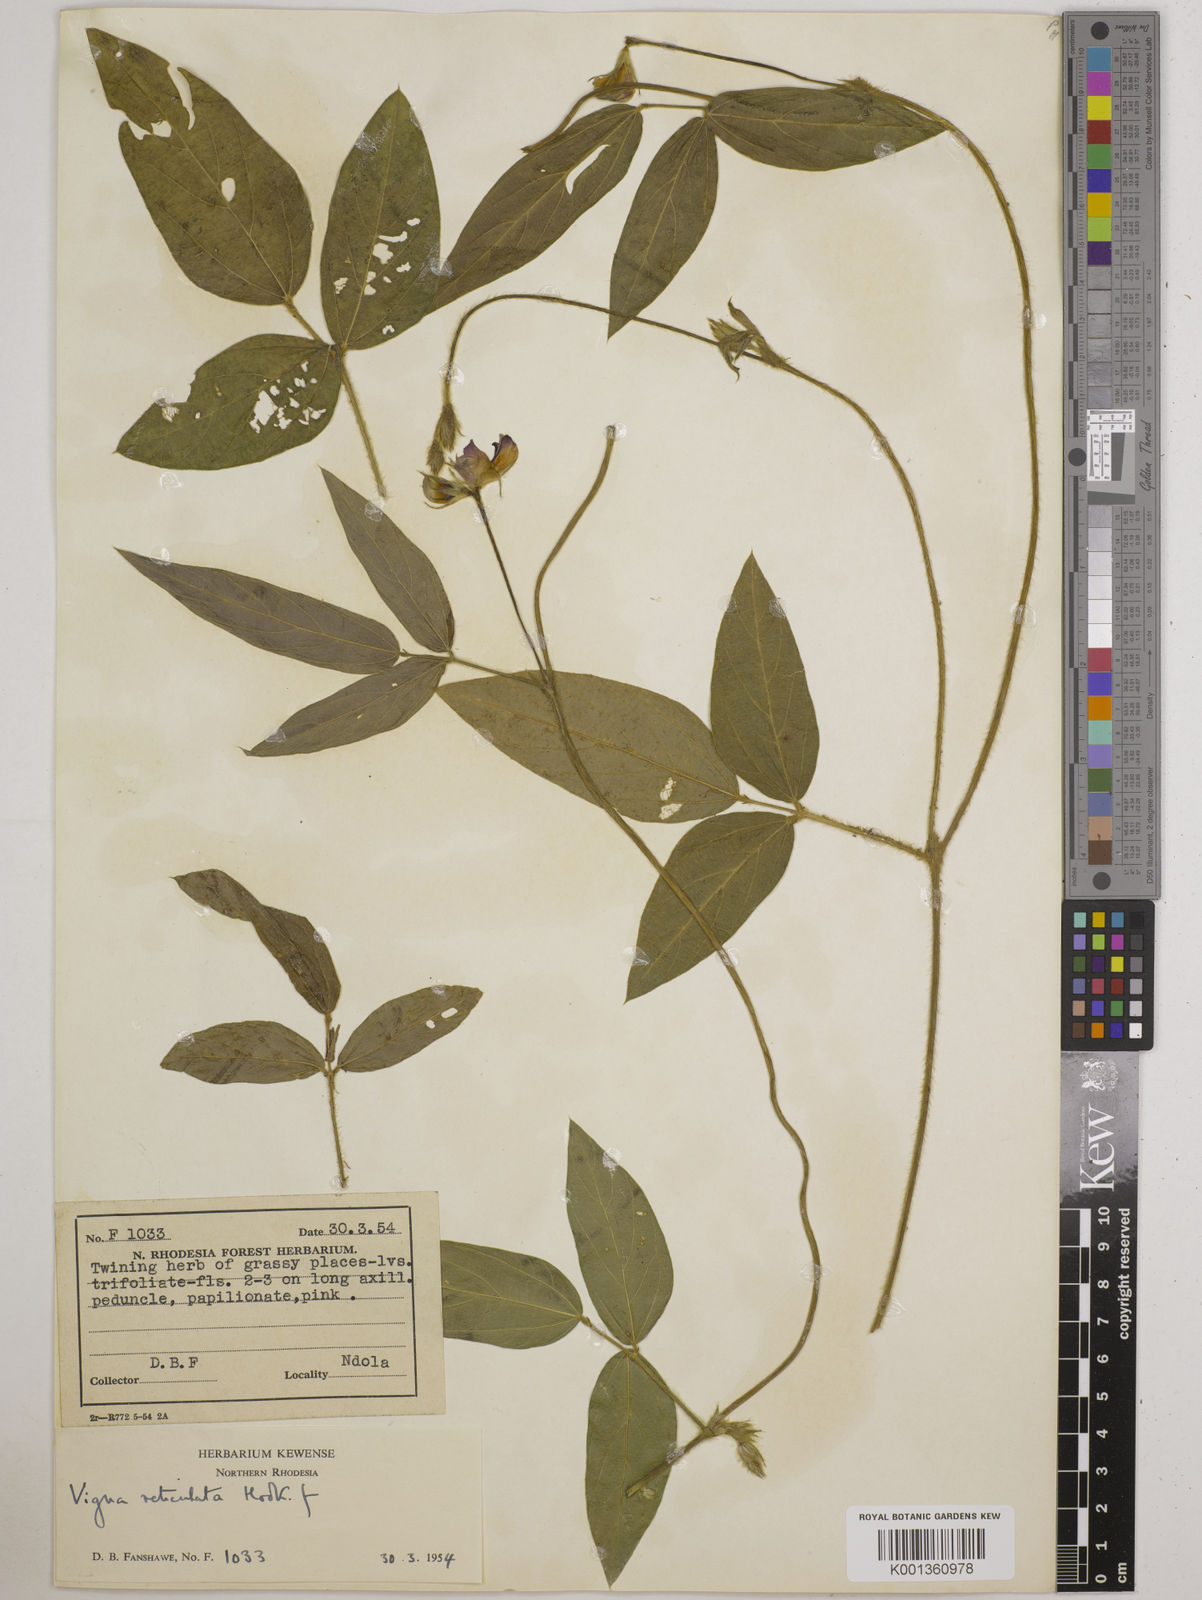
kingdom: Plantae
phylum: Tracheophyta
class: Magnoliopsida
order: Fabales
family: Fabaceae
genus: Vigna
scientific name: Vigna reticulata
